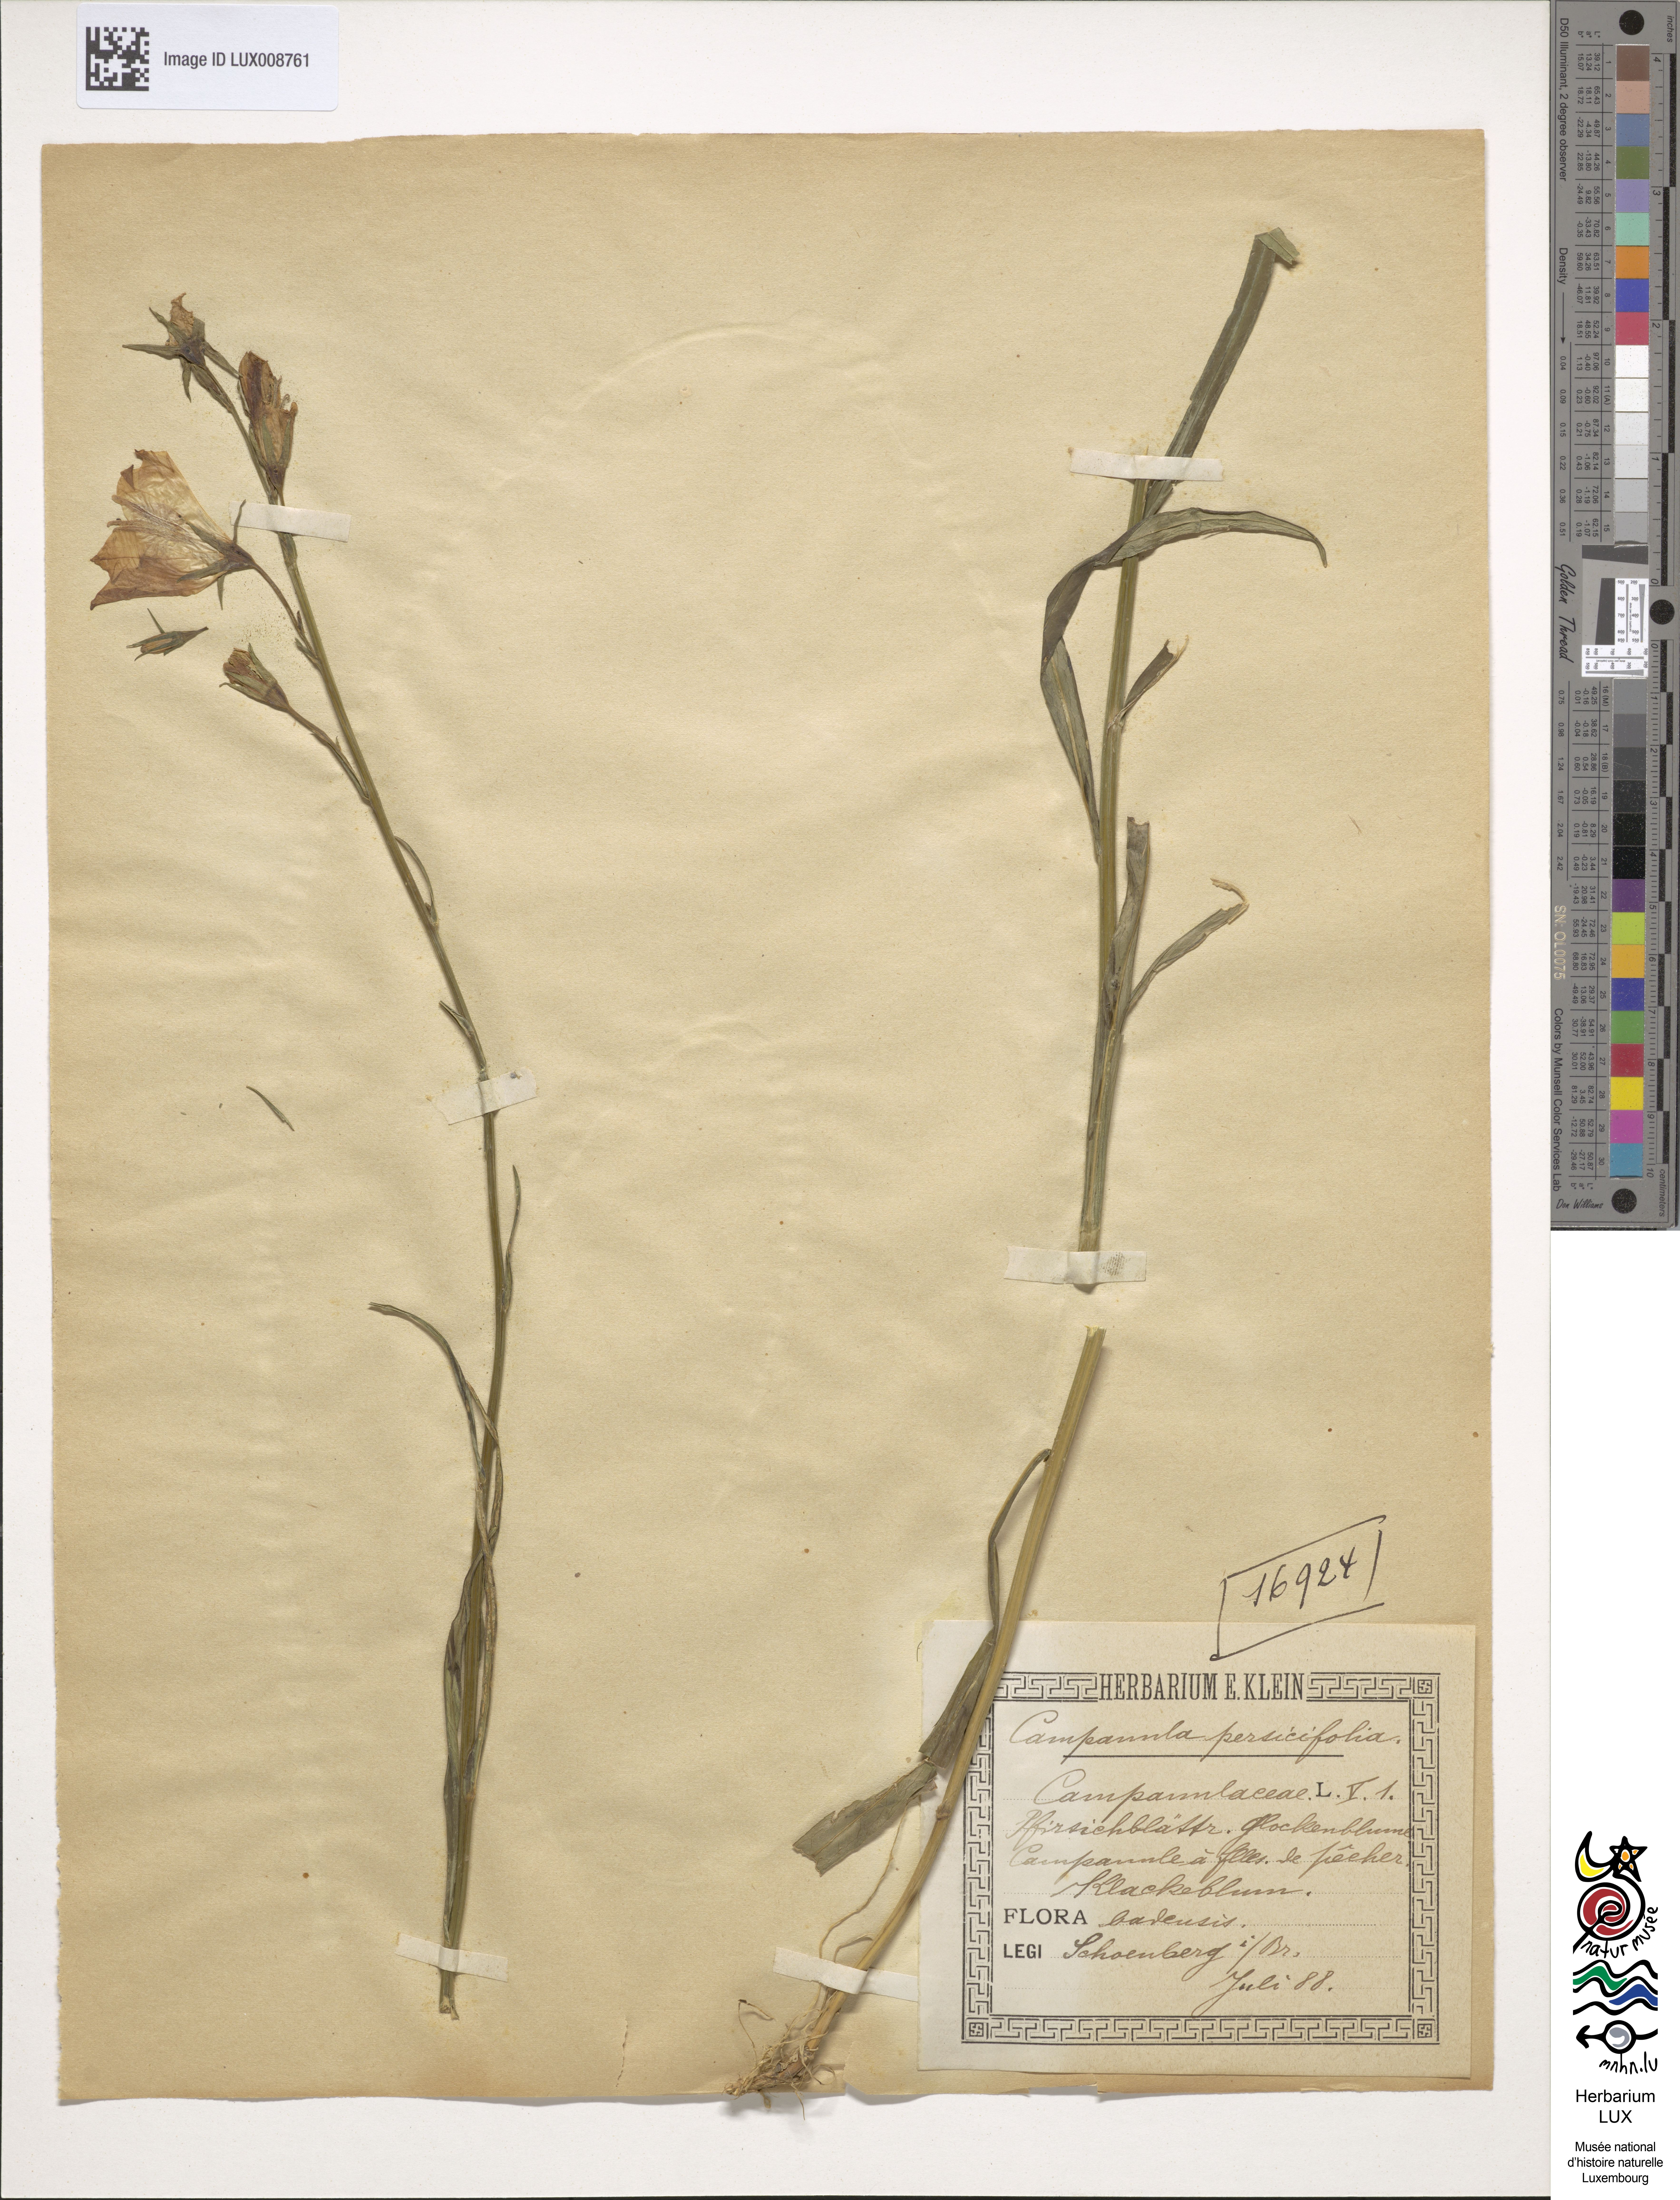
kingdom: Plantae
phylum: Tracheophyta
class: Magnoliopsida
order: Asterales
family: Campanulaceae
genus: Campanula
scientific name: Campanula persicifolia
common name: Peach-leaved bellflower
